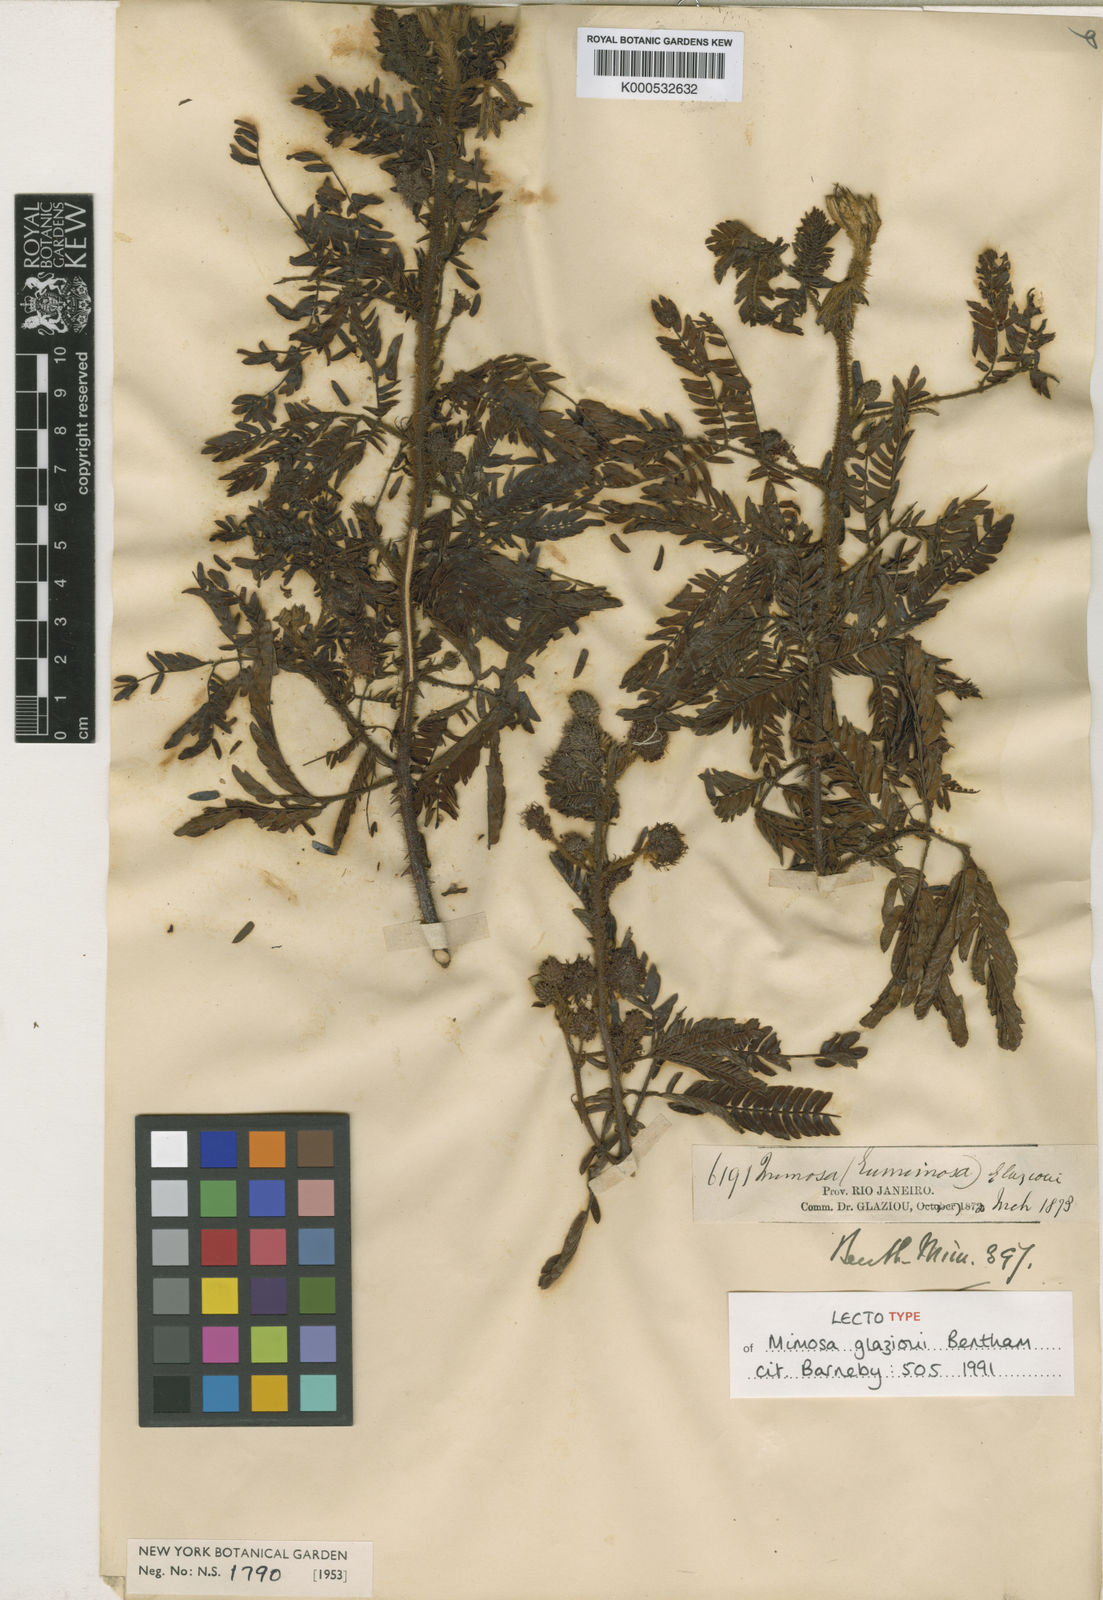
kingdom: Plantae
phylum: Tracheophyta
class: Magnoliopsida
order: Fabales
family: Fabaceae
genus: Mimosa
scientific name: Mimosa
